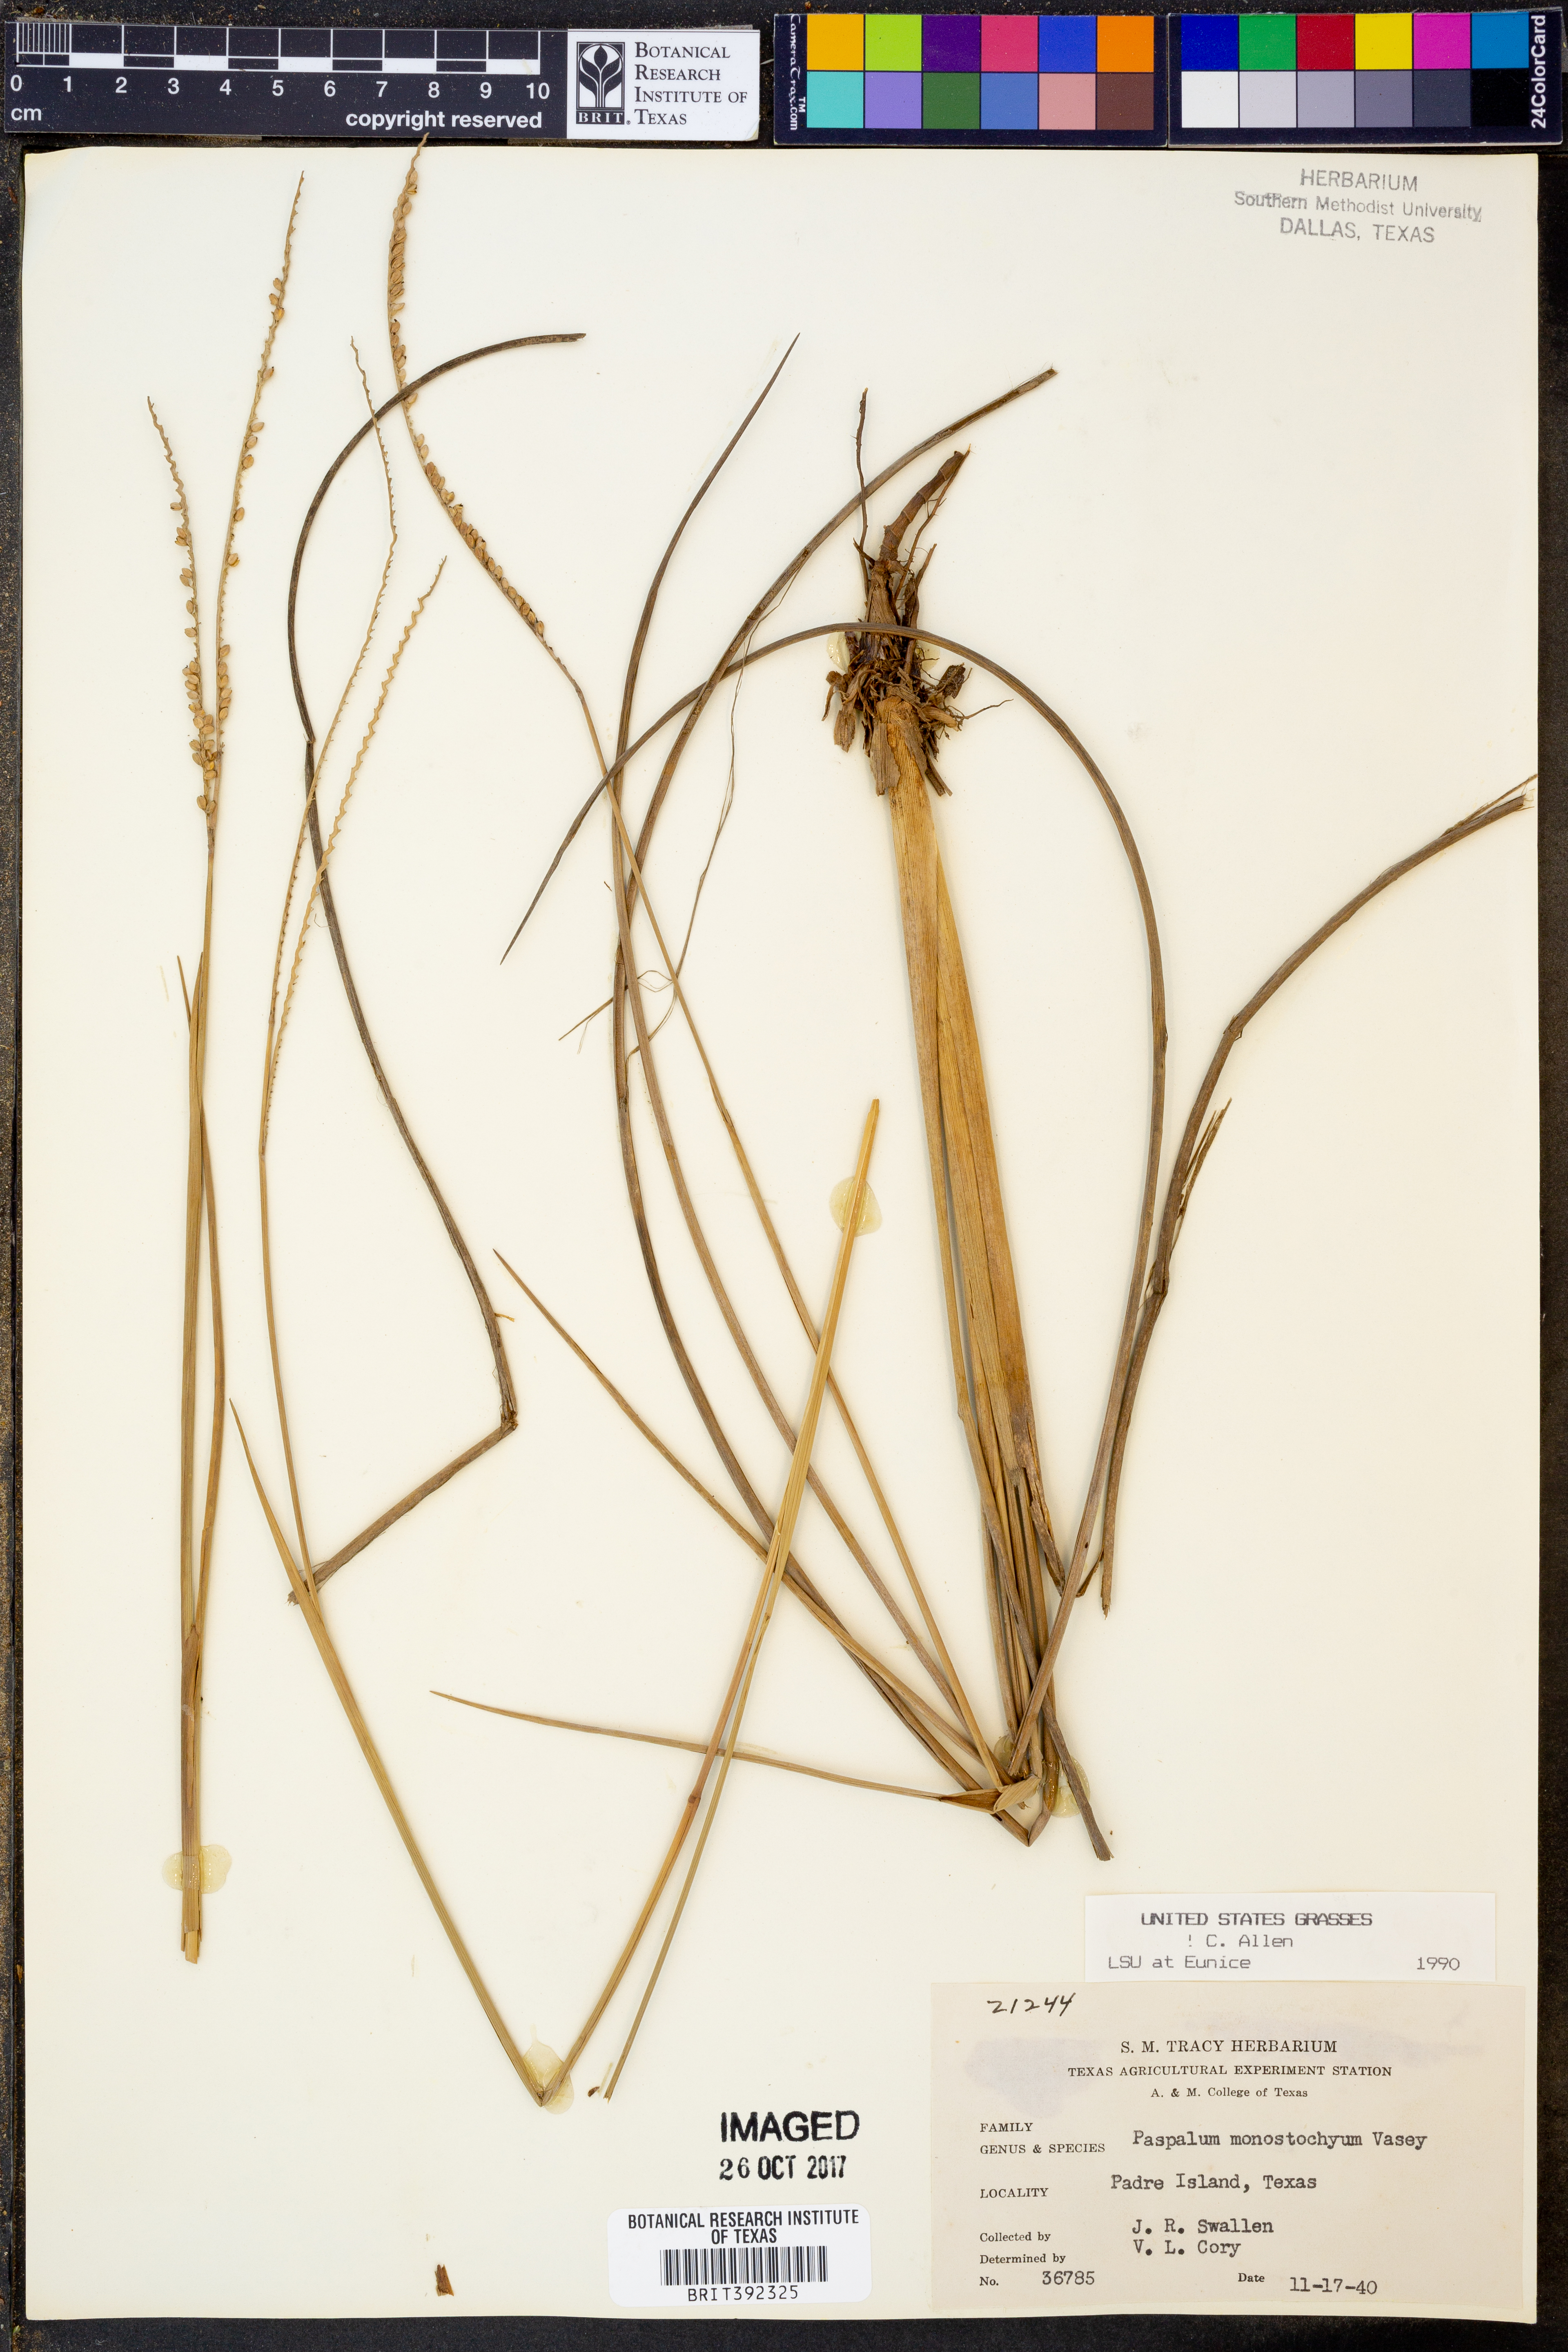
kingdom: Plantae
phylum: Tracheophyta
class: Liliopsida
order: Poales
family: Poaceae
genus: Paspalum
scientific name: Paspalum monostachyum
